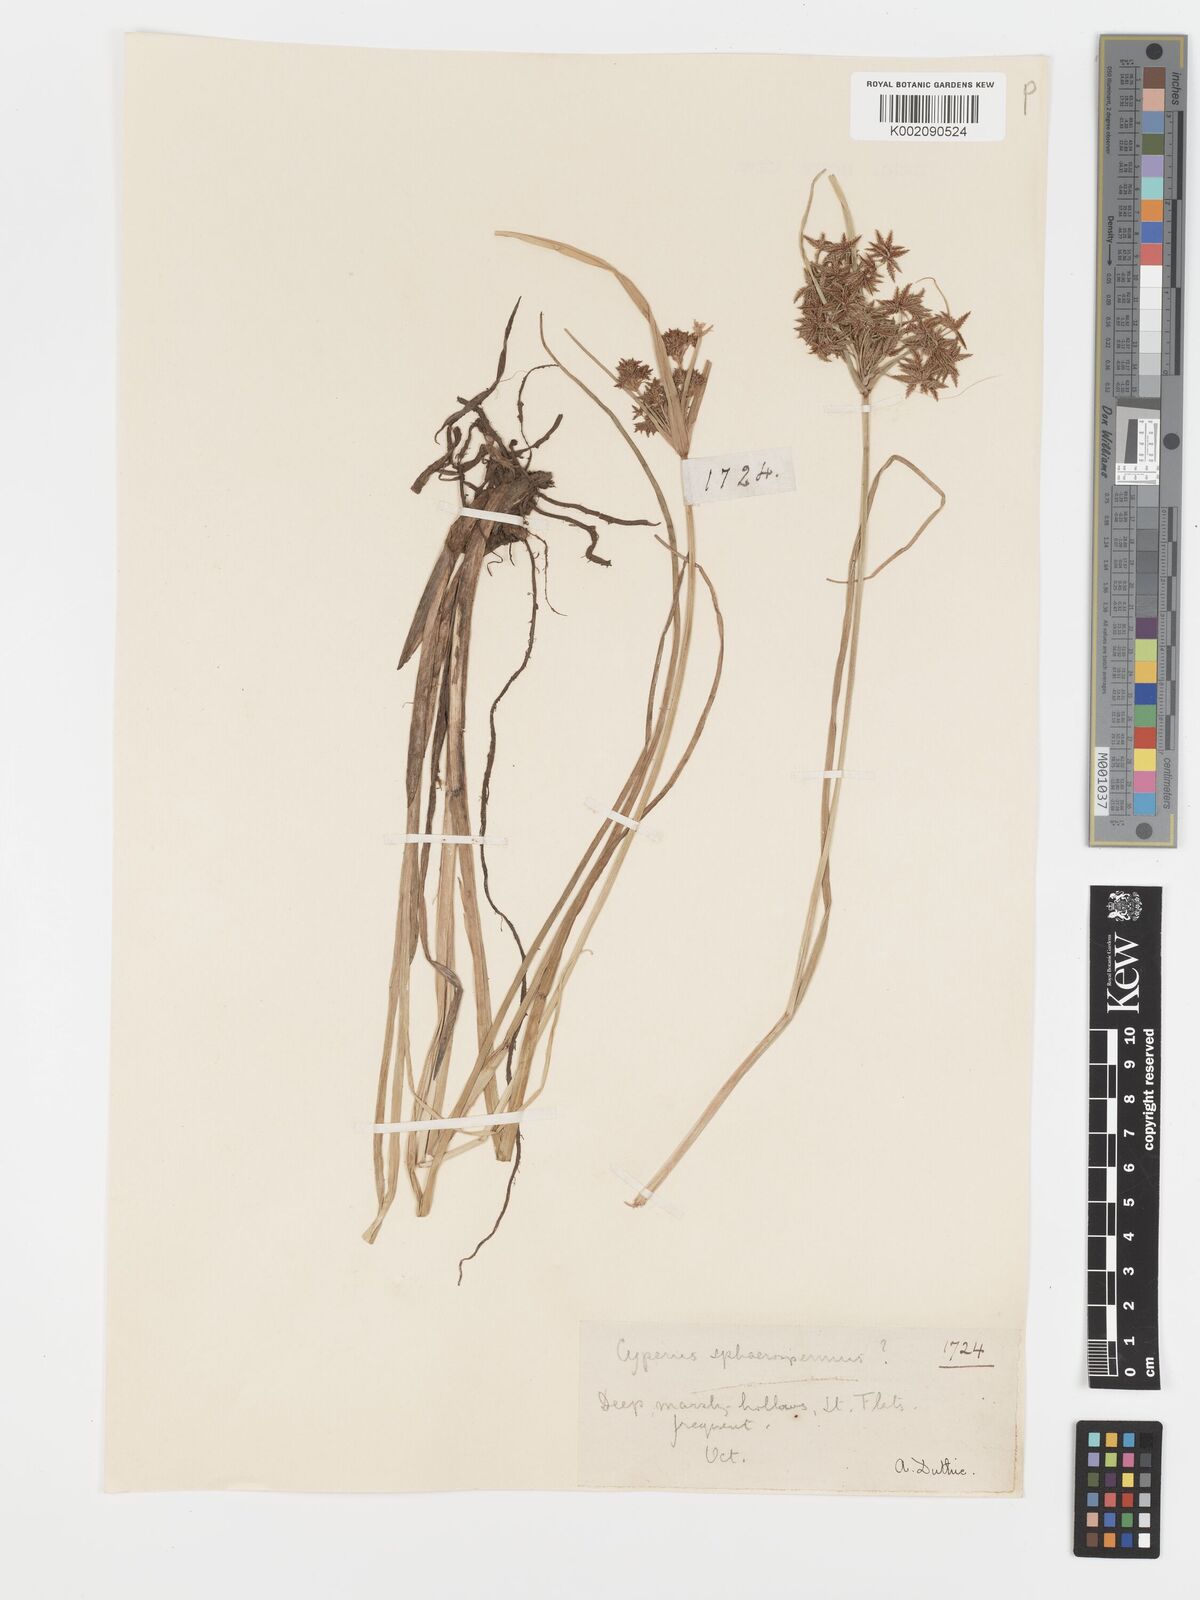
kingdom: Plantae
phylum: Tracheophyta
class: Liliopsida
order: Poales
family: Cyperaceae
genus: Cyperus
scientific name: Cyperus sphaerospermus
